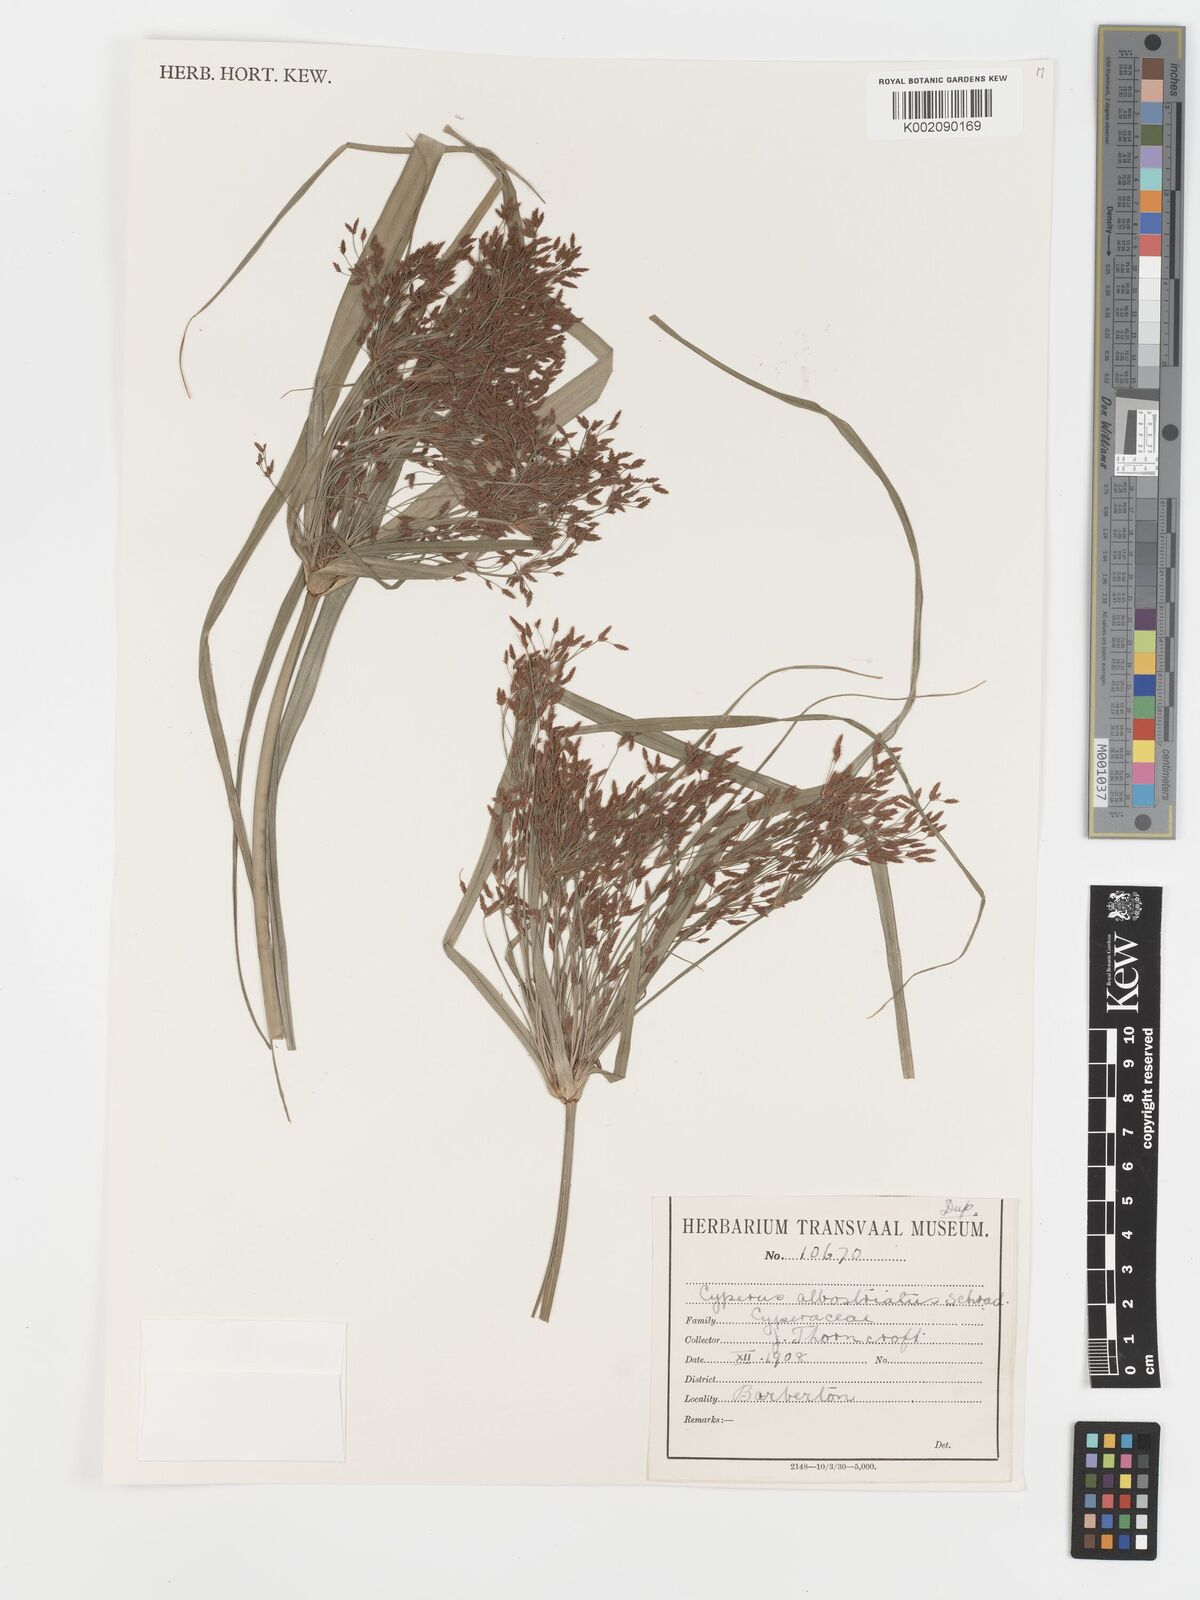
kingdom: Plantae
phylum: Tracheophyta
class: Liliopsida
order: Poales
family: Cyperaceae
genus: Cyperus
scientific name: Cyperus albostriatus
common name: Dwarf umbrella-grass
